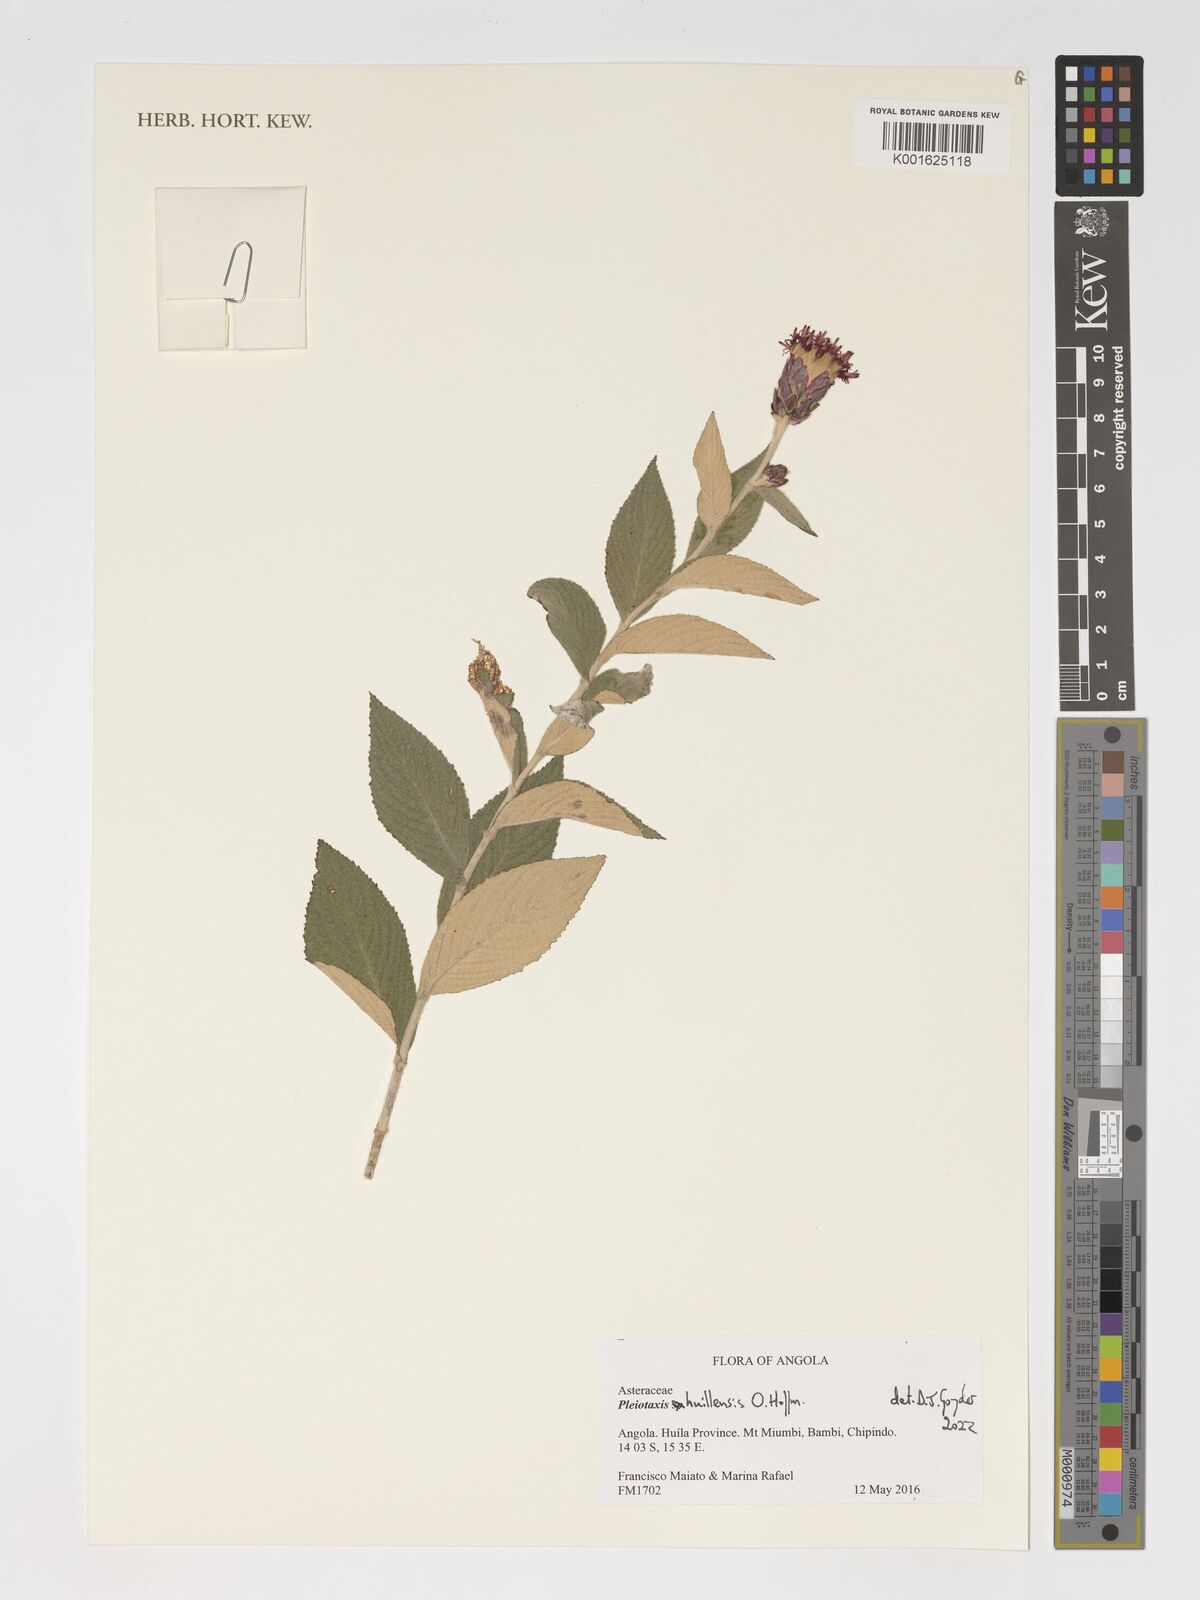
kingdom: Plantae
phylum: Tracheophyta
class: Magnoliopsida
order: Asterales
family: Asteraceae
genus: Pleiotaxis
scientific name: Pleiotaxis huillensis
